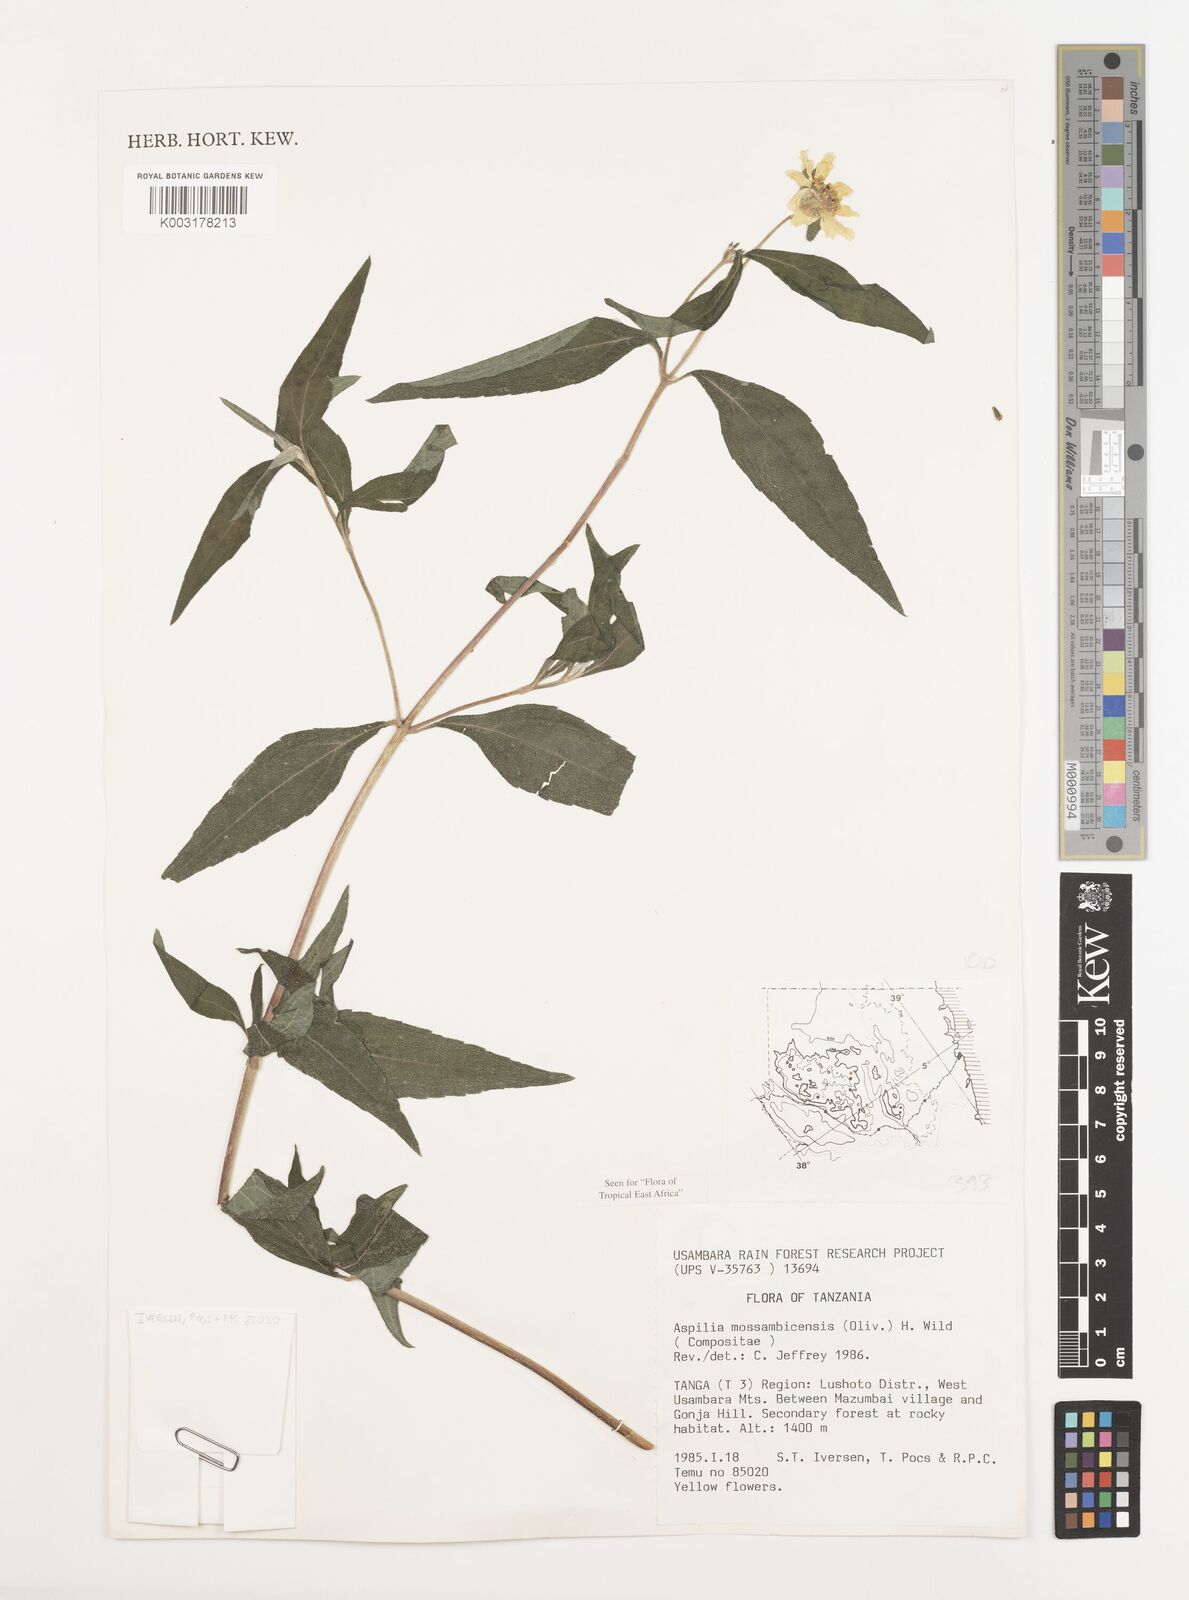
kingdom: Plantae
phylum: Tracheophyta
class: Magnoliopsida
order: Asterales
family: Asteraceae
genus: Aspilia
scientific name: Aspilia mossambicensis
